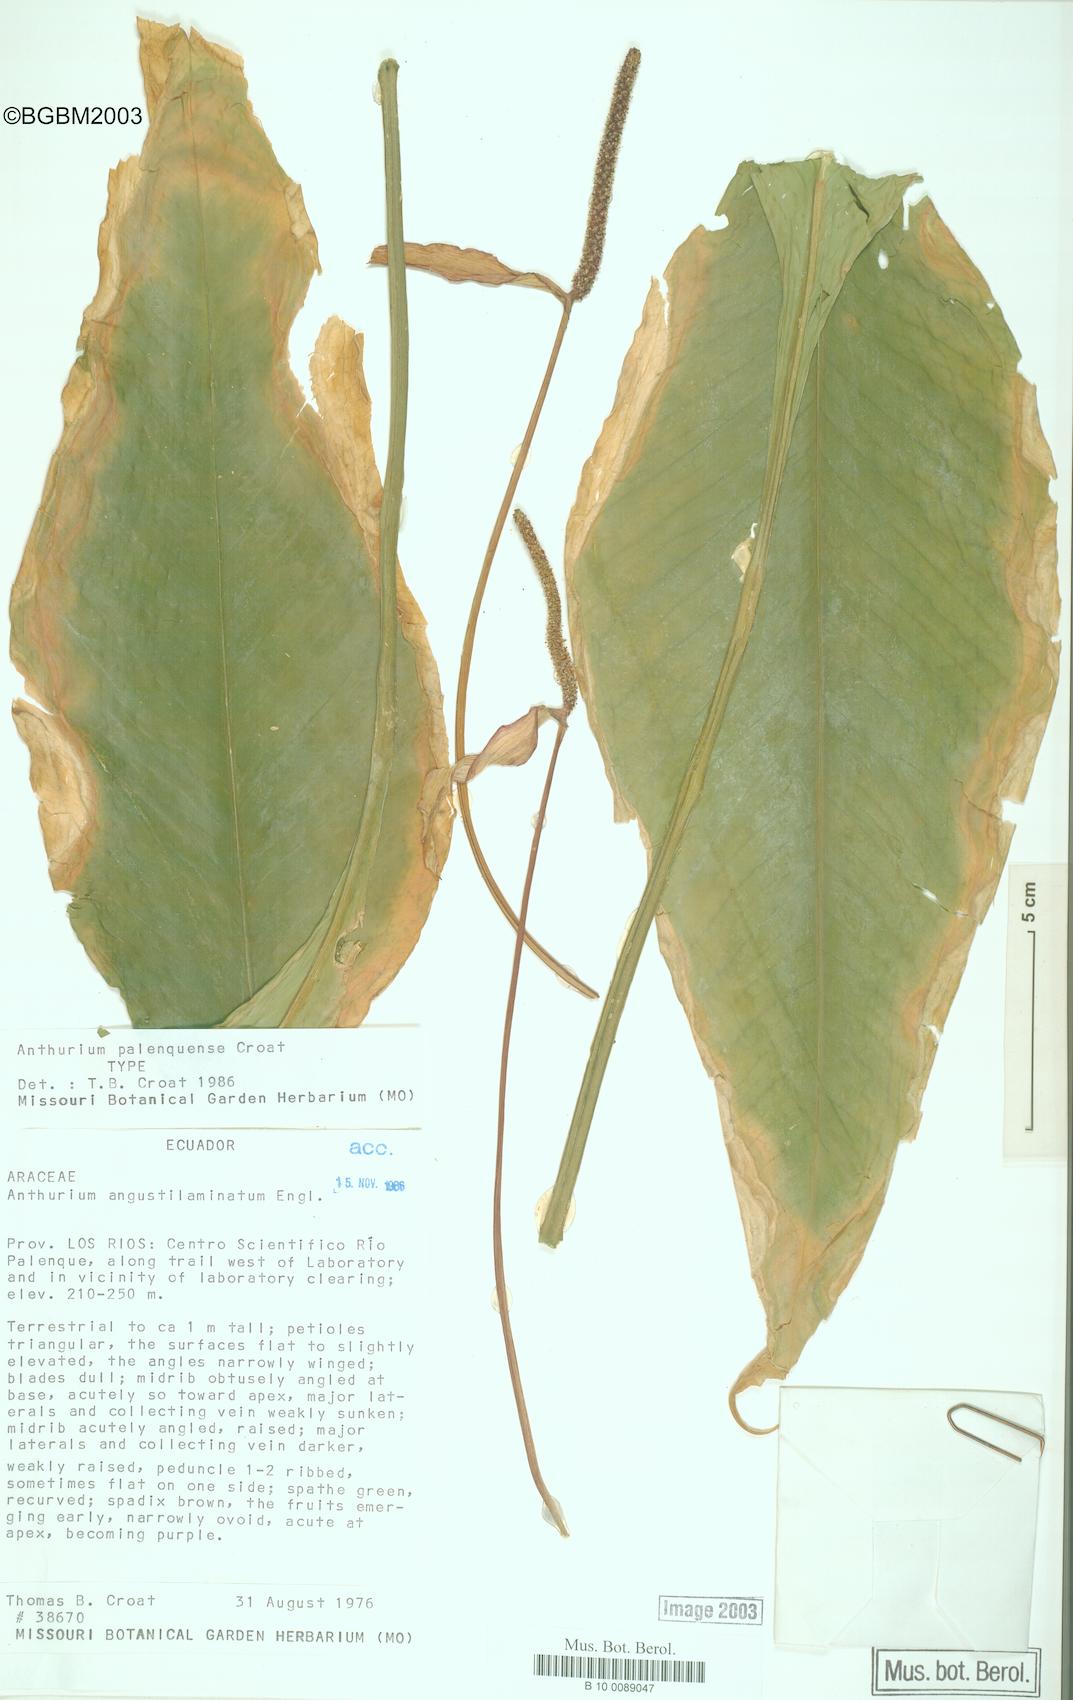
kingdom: Plantae
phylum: Tracheophyta
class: Liliopsida
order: Alismatales
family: Araceae
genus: Anthurium
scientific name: Anthurium palenquense
